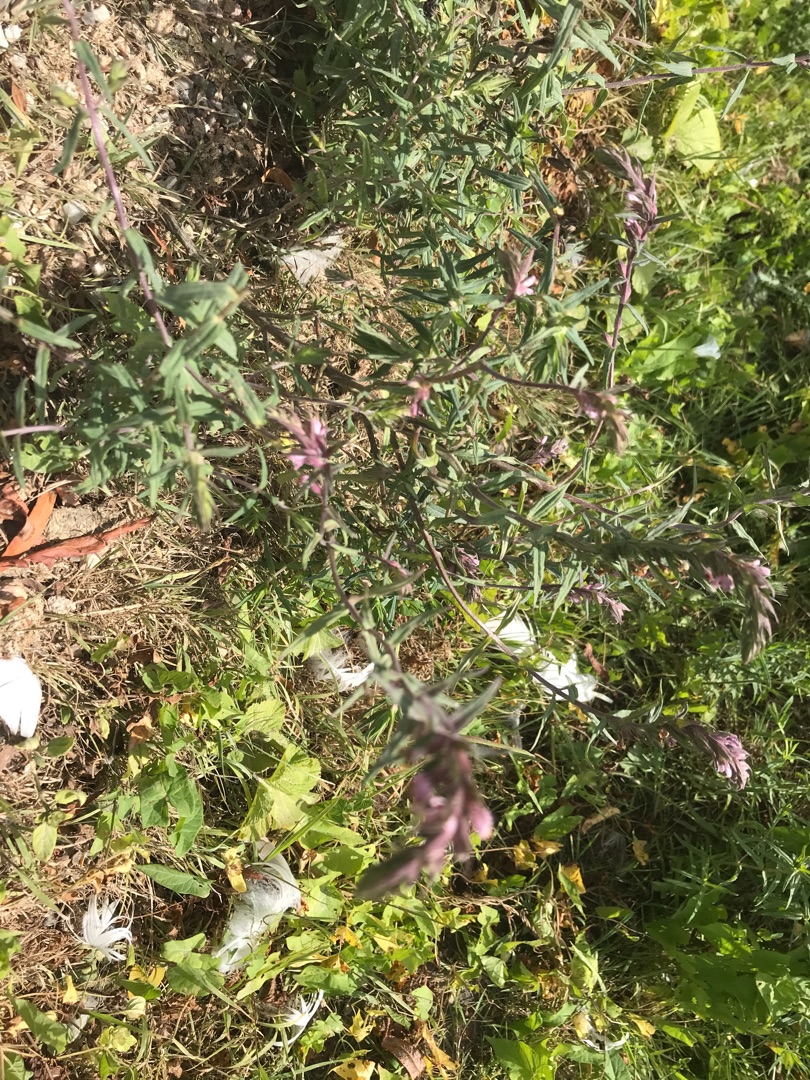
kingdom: Plantae
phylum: Tracheophyta
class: Magnoliopsida
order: Lamiales
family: Orobanchaceae
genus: Odontites
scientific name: Odontites vulgaris
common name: Høst-rødtop
